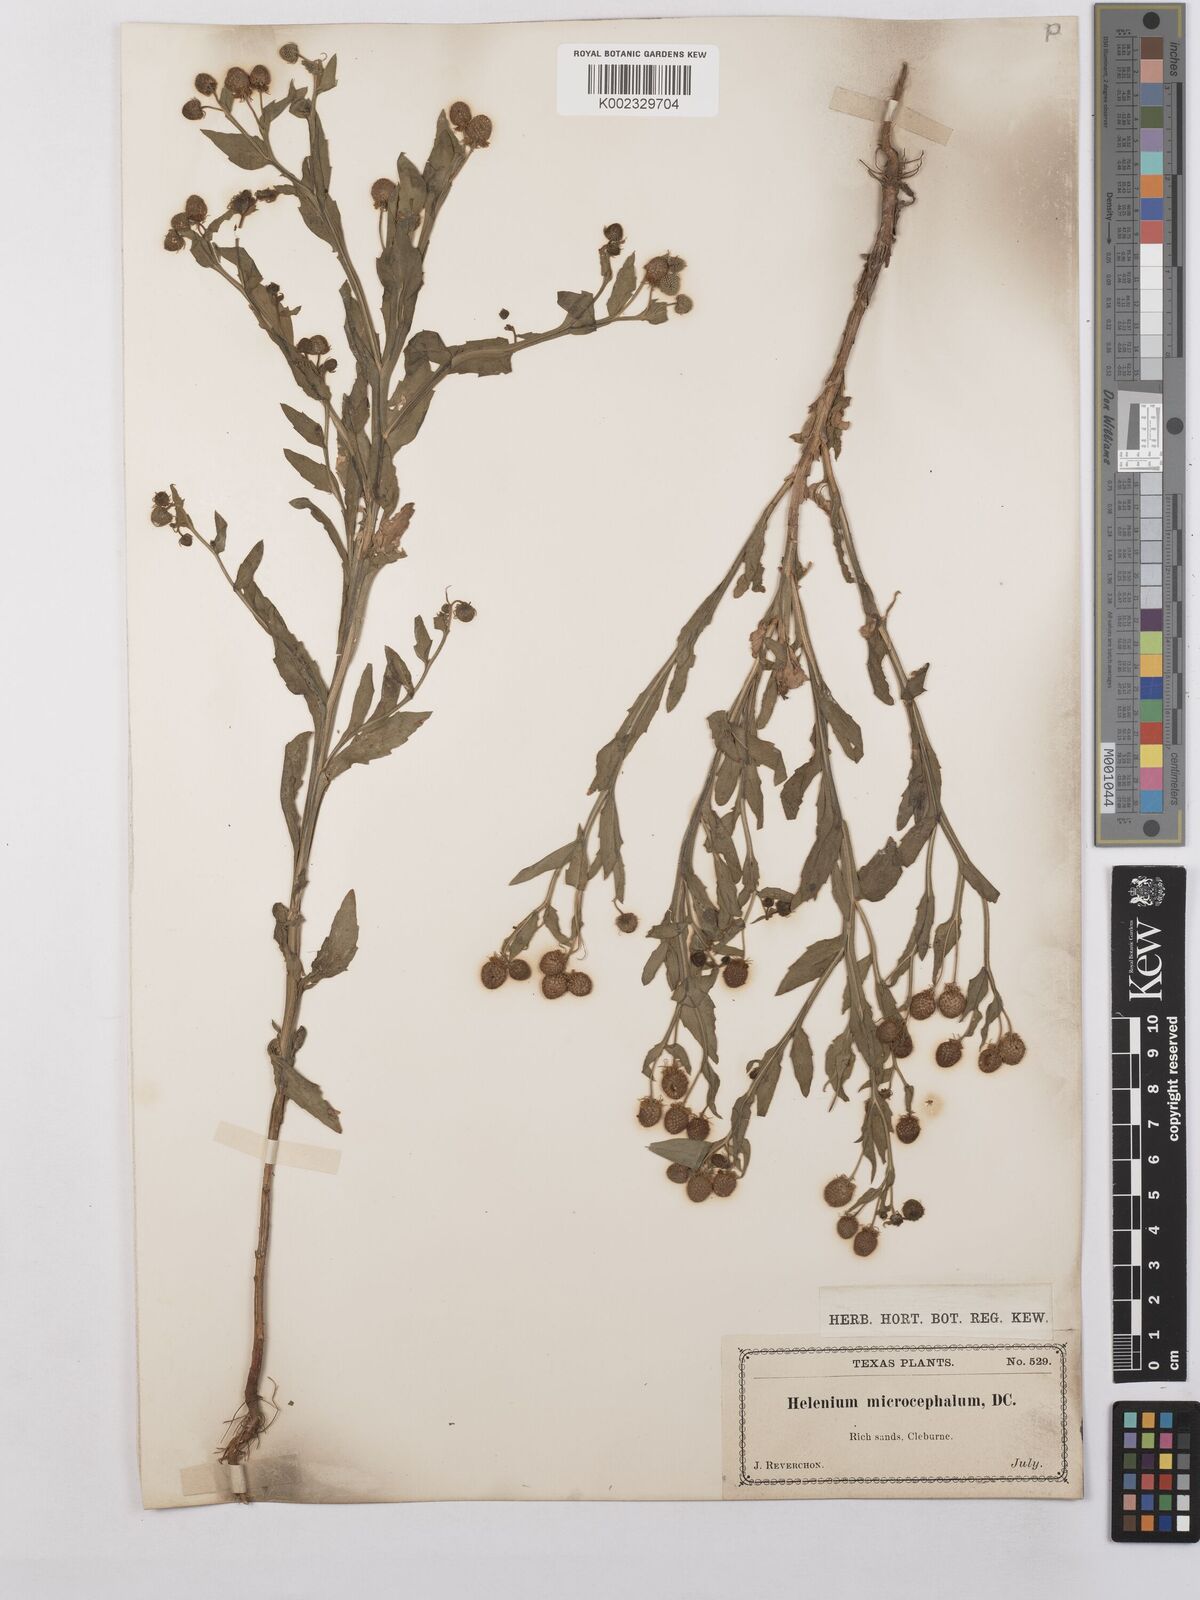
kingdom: Plantae
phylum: Tracheophyta
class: Magnoliopsida
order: Asterales
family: Asteraceae
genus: Helenium
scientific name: Helenium microcephalum
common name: Smallhead sneezeweed
